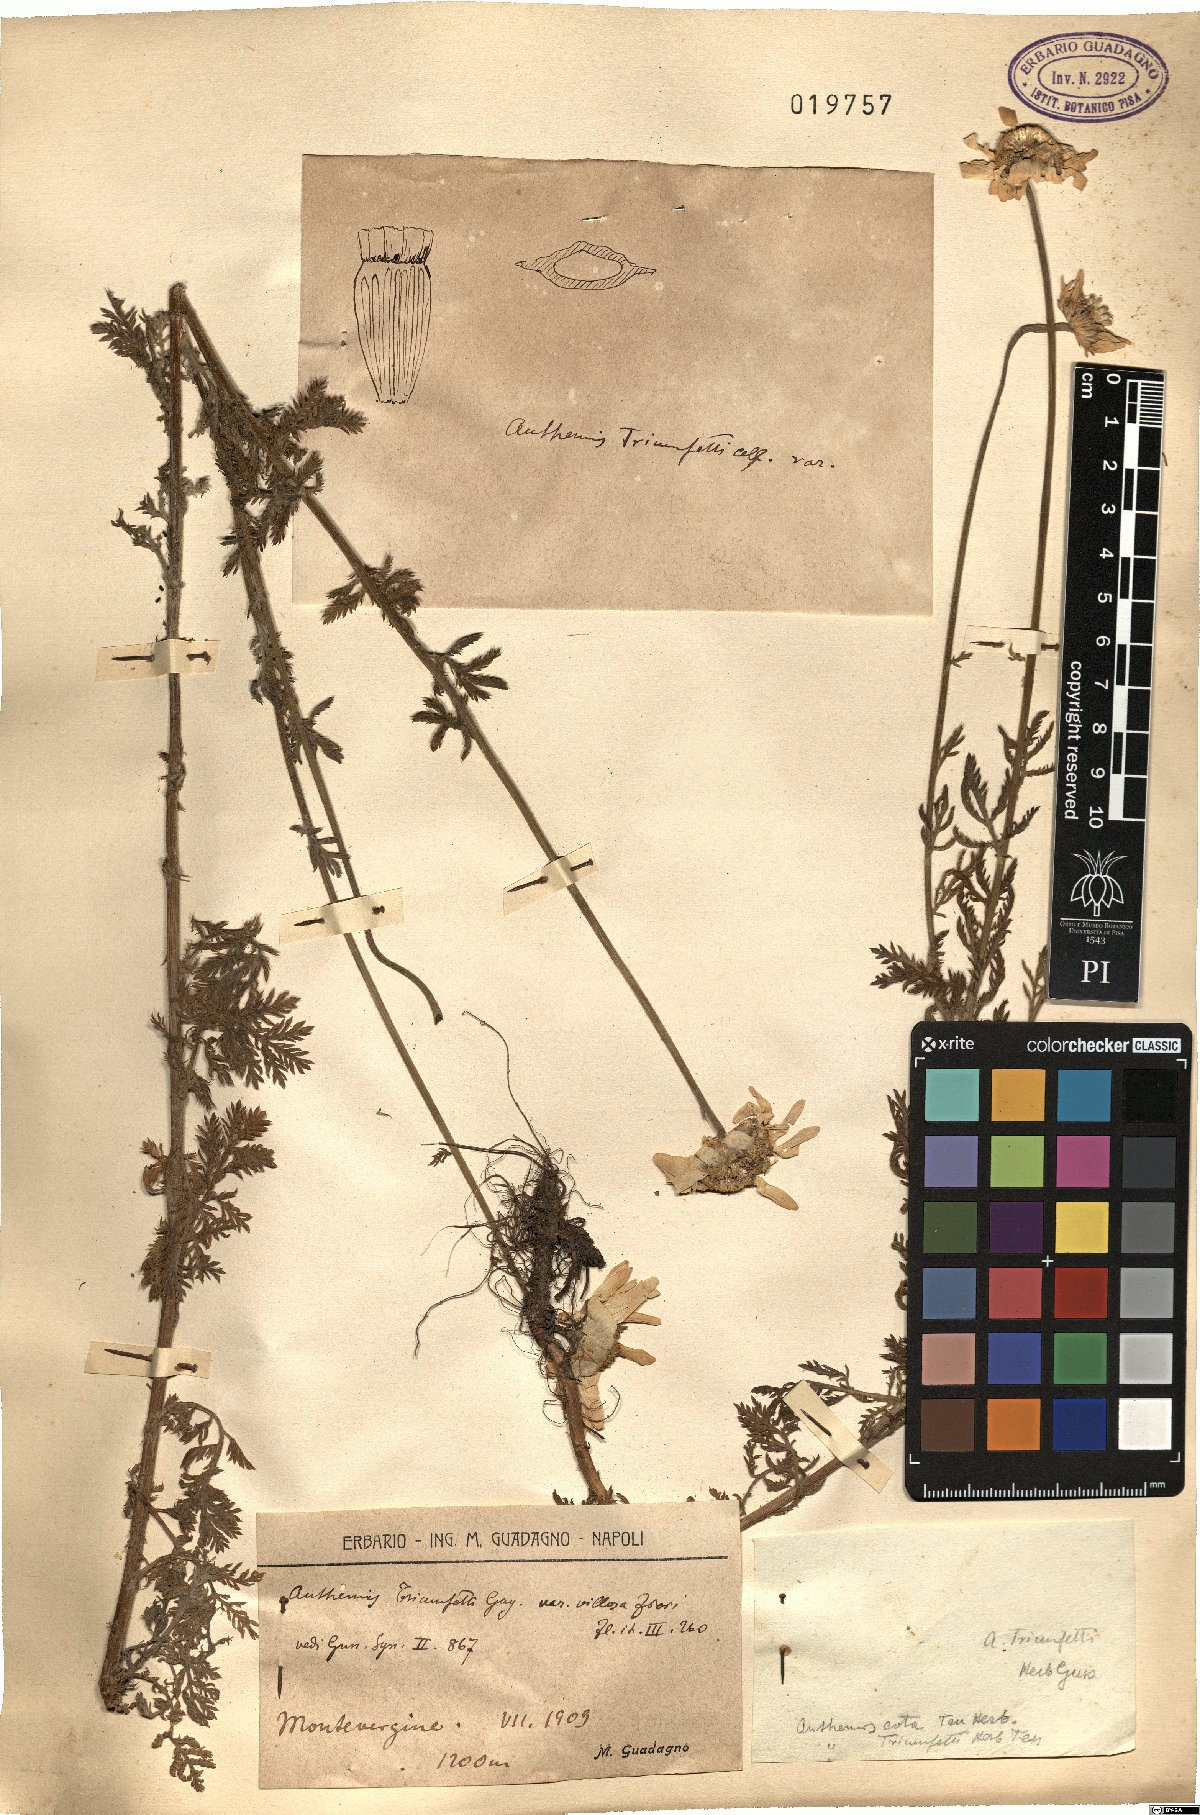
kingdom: Plantae
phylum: Tracheophyta
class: Magnoliopsida
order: Asterales
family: Asteraceae
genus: Cota
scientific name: Cota triumfetti
